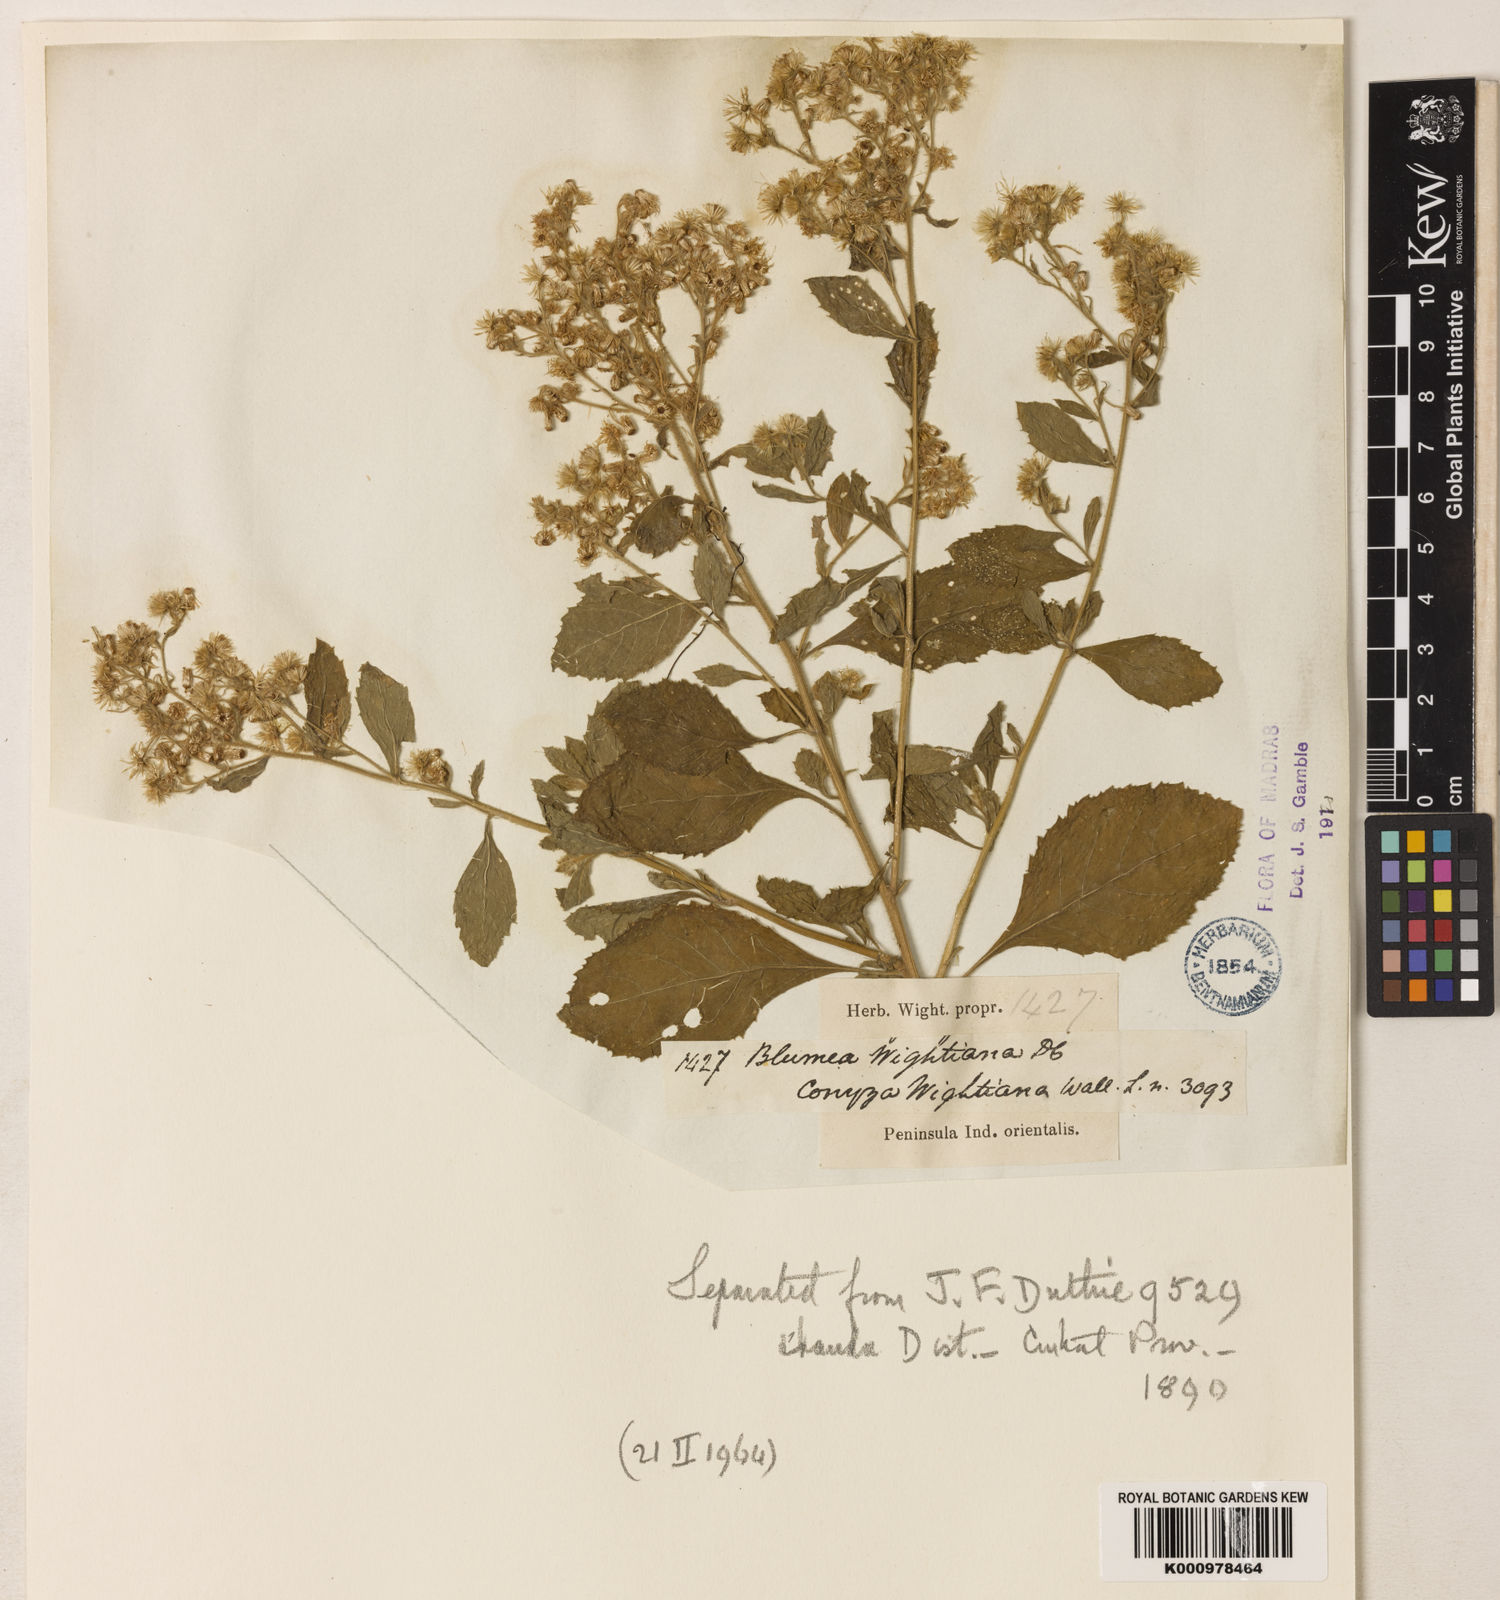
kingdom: Plantae
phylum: Tracheophyta
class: Magnoliopsida
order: Asterales
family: Asteraceae
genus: Blumea
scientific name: Blumea axillaris
